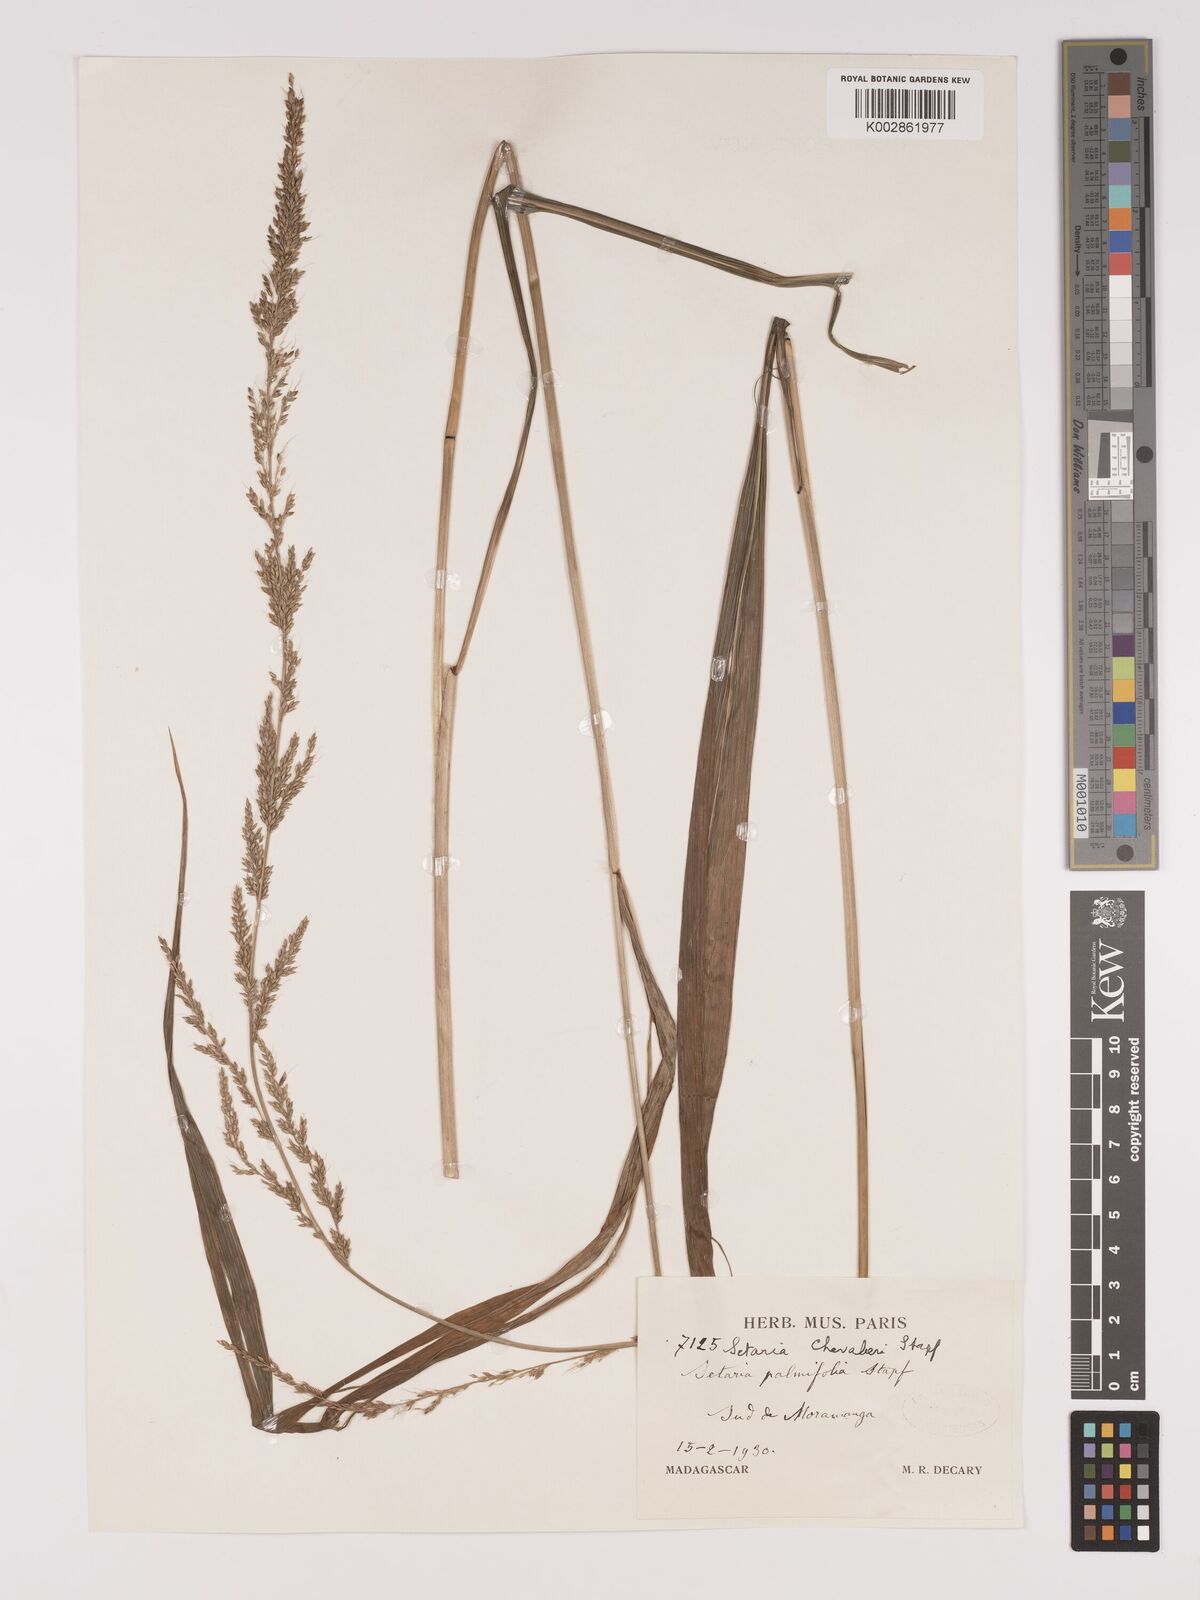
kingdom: Plantae
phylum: Tracheophyta
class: Liliopsida
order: Poales
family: Poaceae
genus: Setaria
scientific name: Setaria megaphylla
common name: Bigleaf bristlegrass
